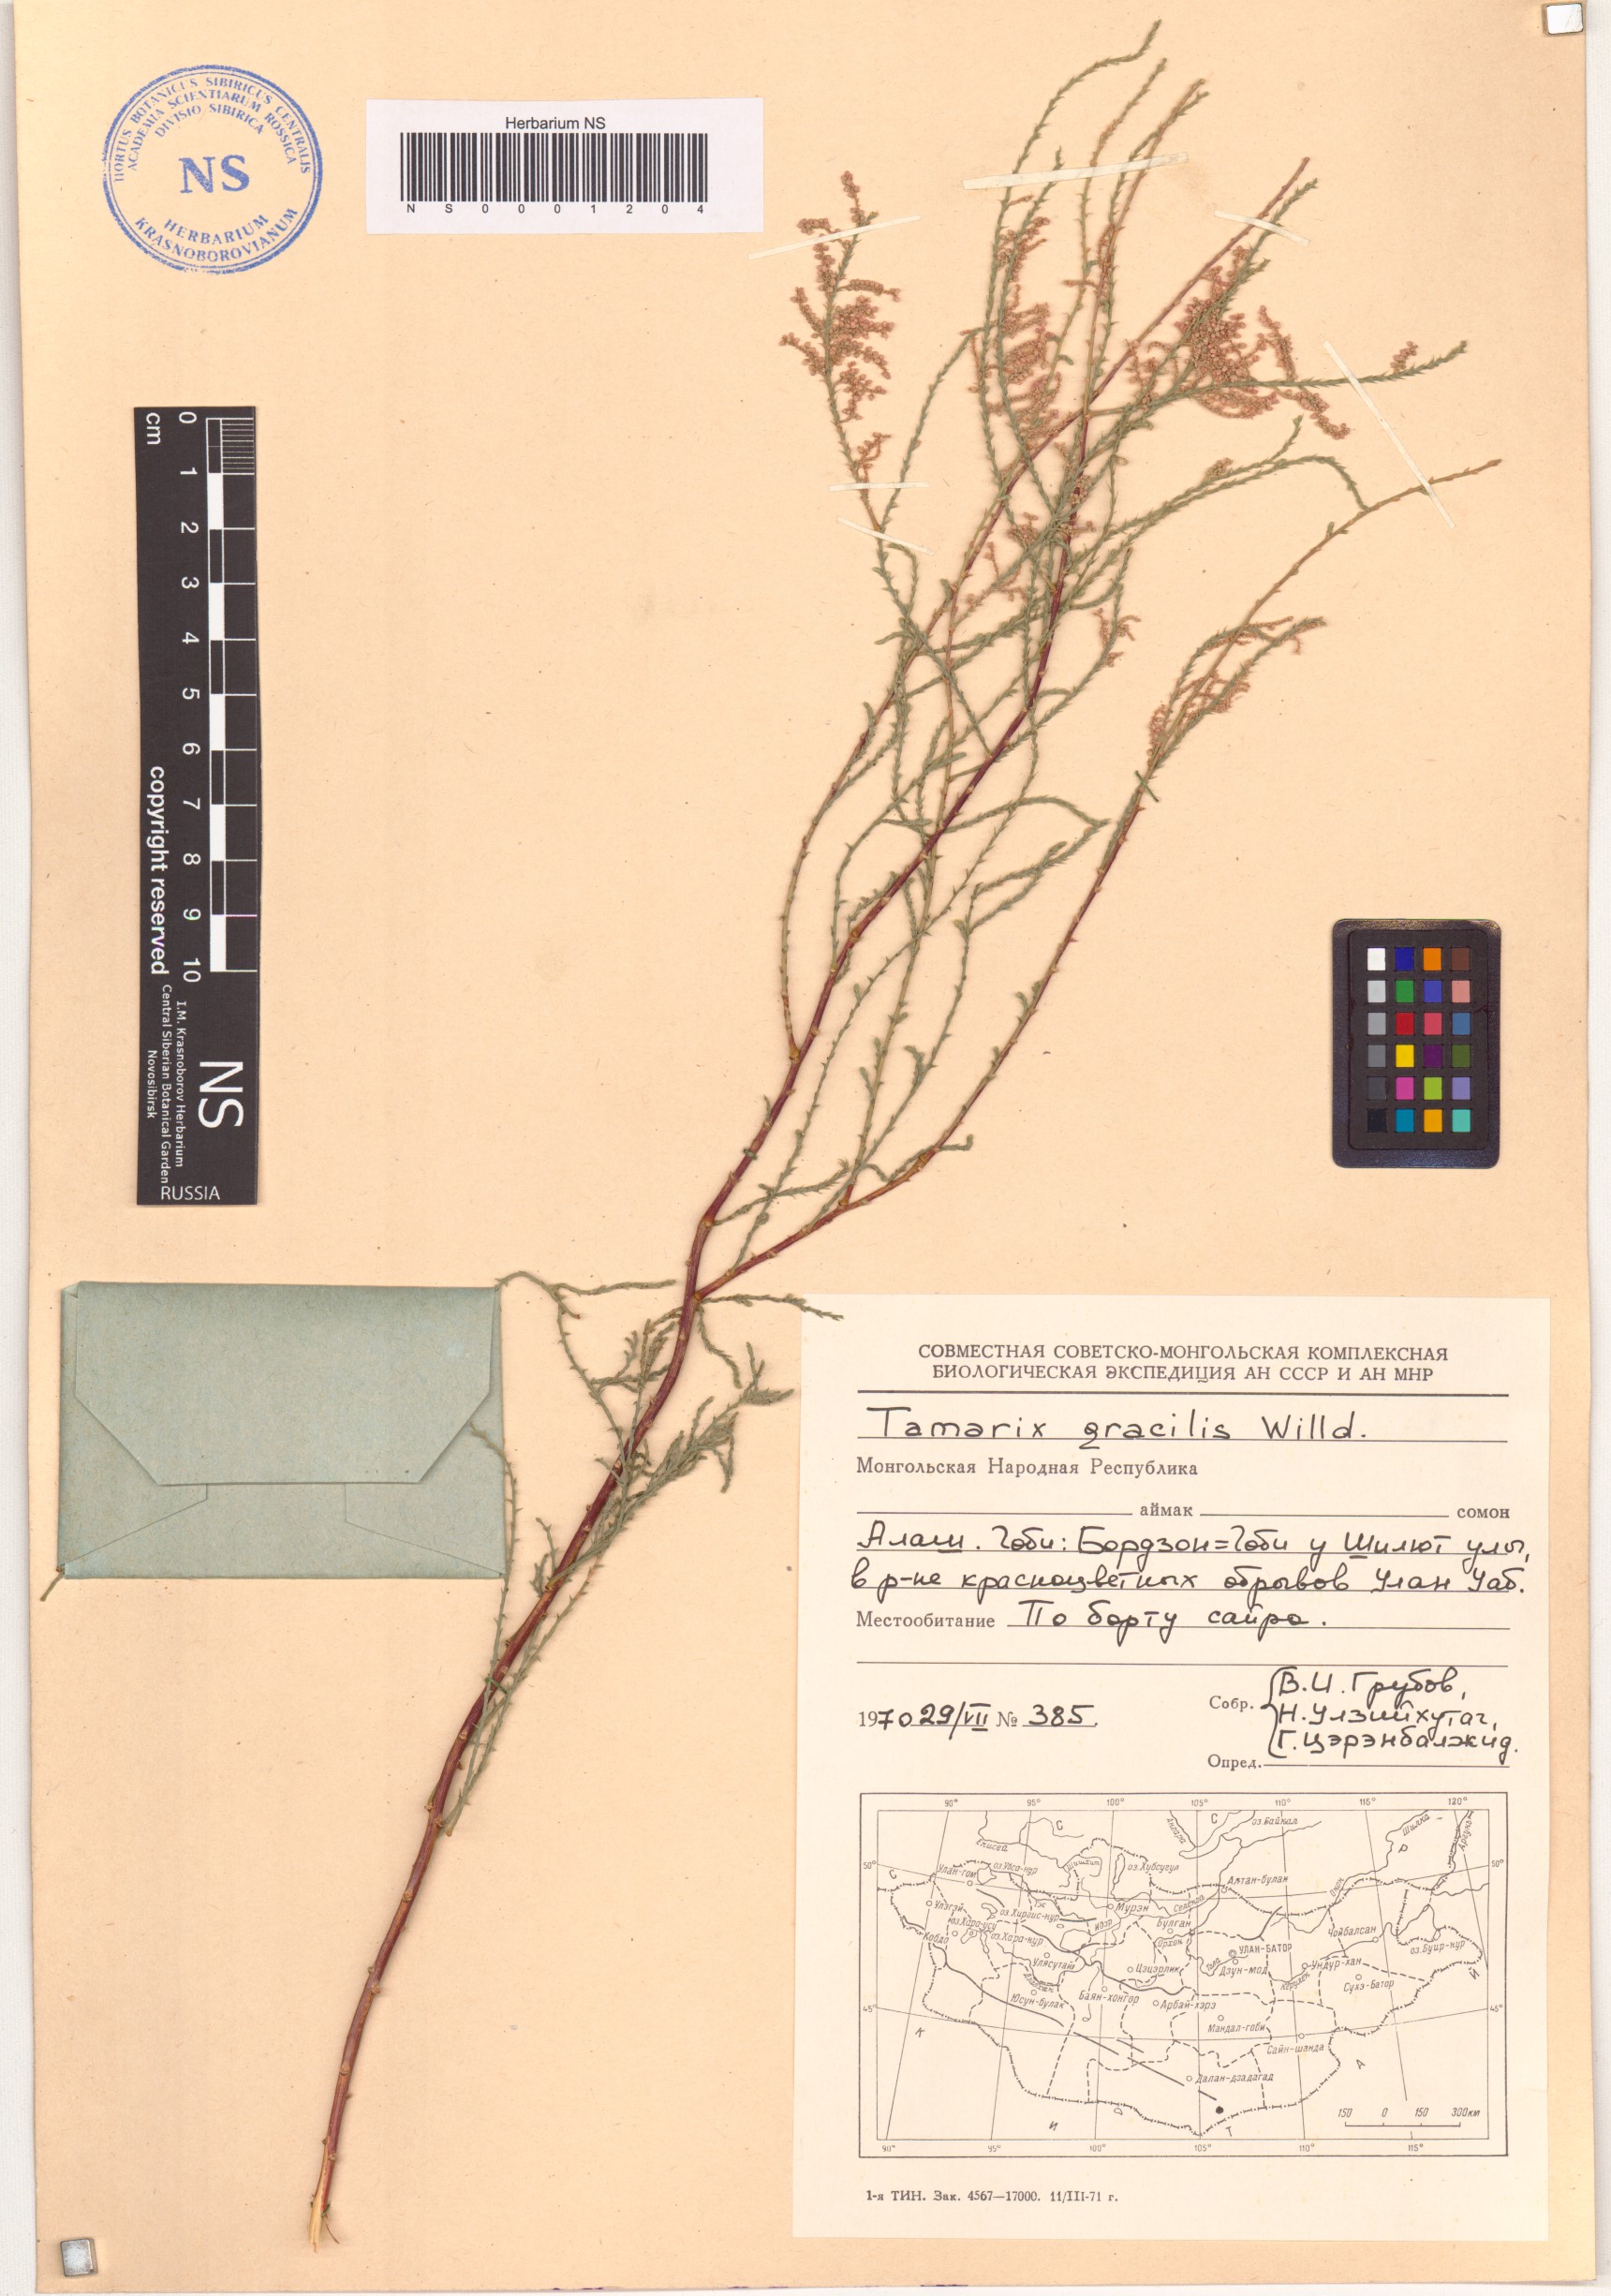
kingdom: Plantae
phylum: Tracheophyta
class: Magnoliopsida
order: Caryophyllales
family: Tamaricaceae
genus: Tamarix
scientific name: Tamarix gracilis
